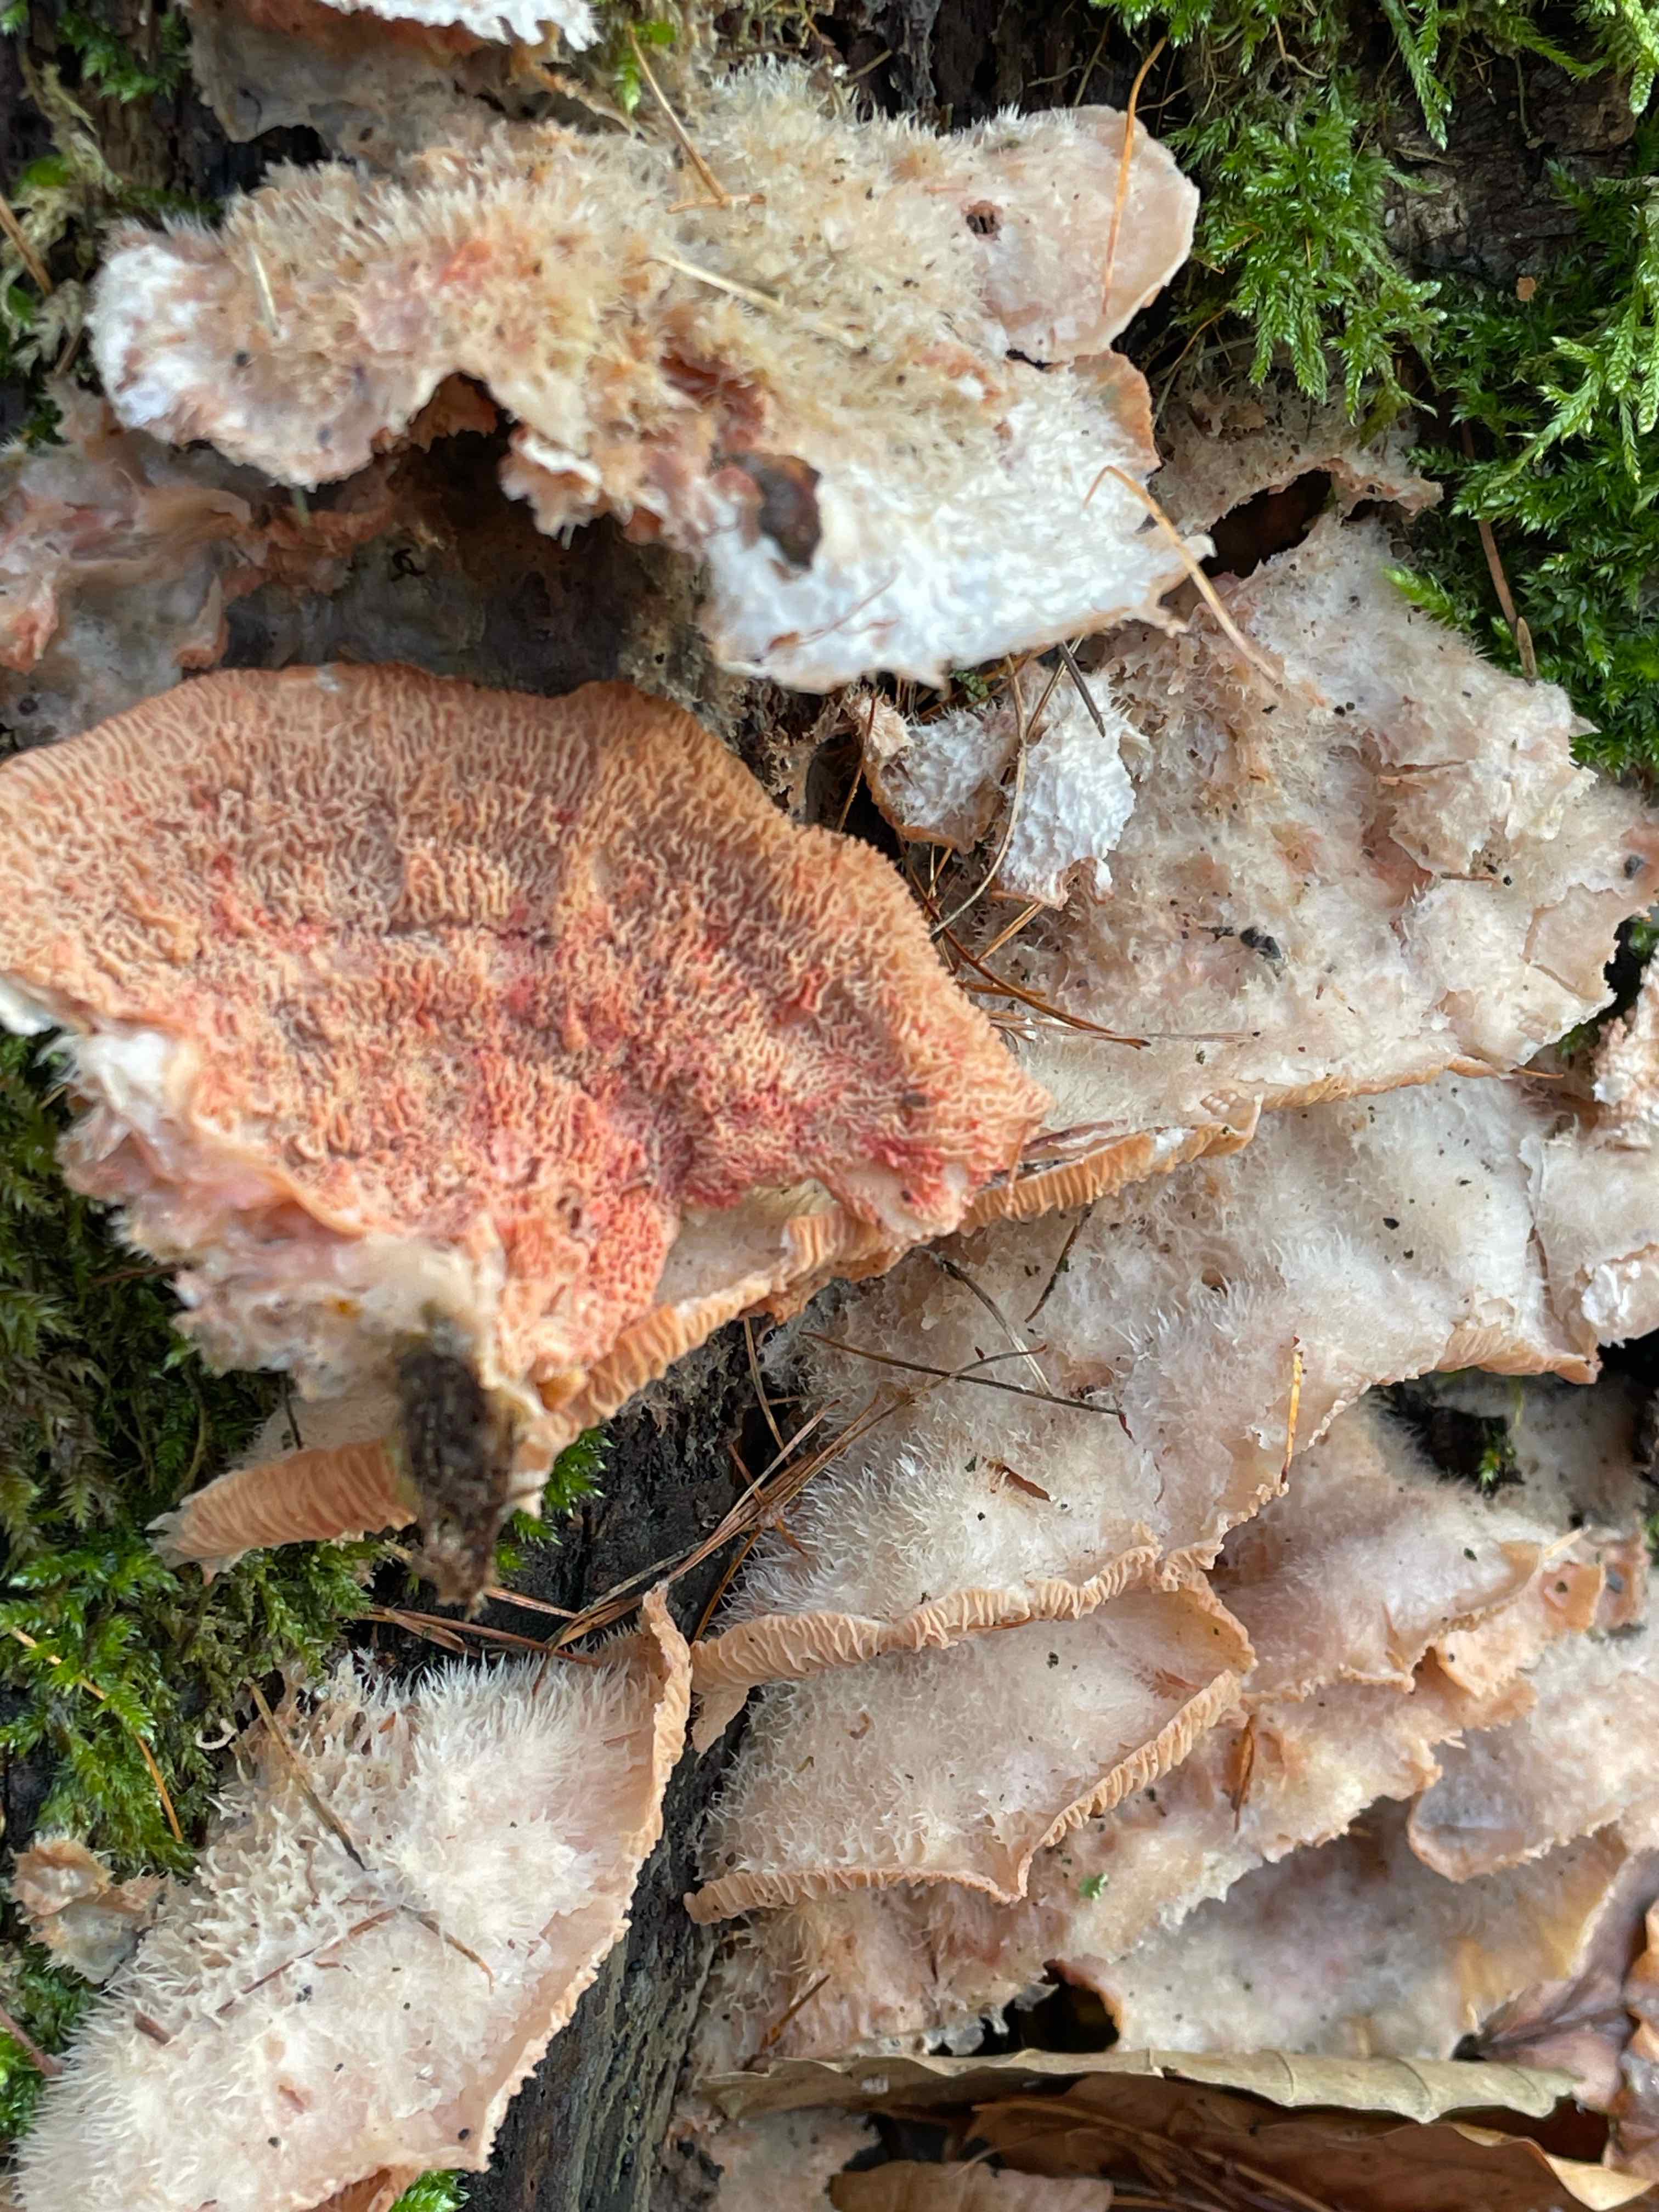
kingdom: Fungi
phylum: Basidiomycota
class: Agaricomycetes
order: Polyporales
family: Meruliaceae
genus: Phlebia
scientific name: Phlebia tremellosa
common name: bævrende åresvamp
